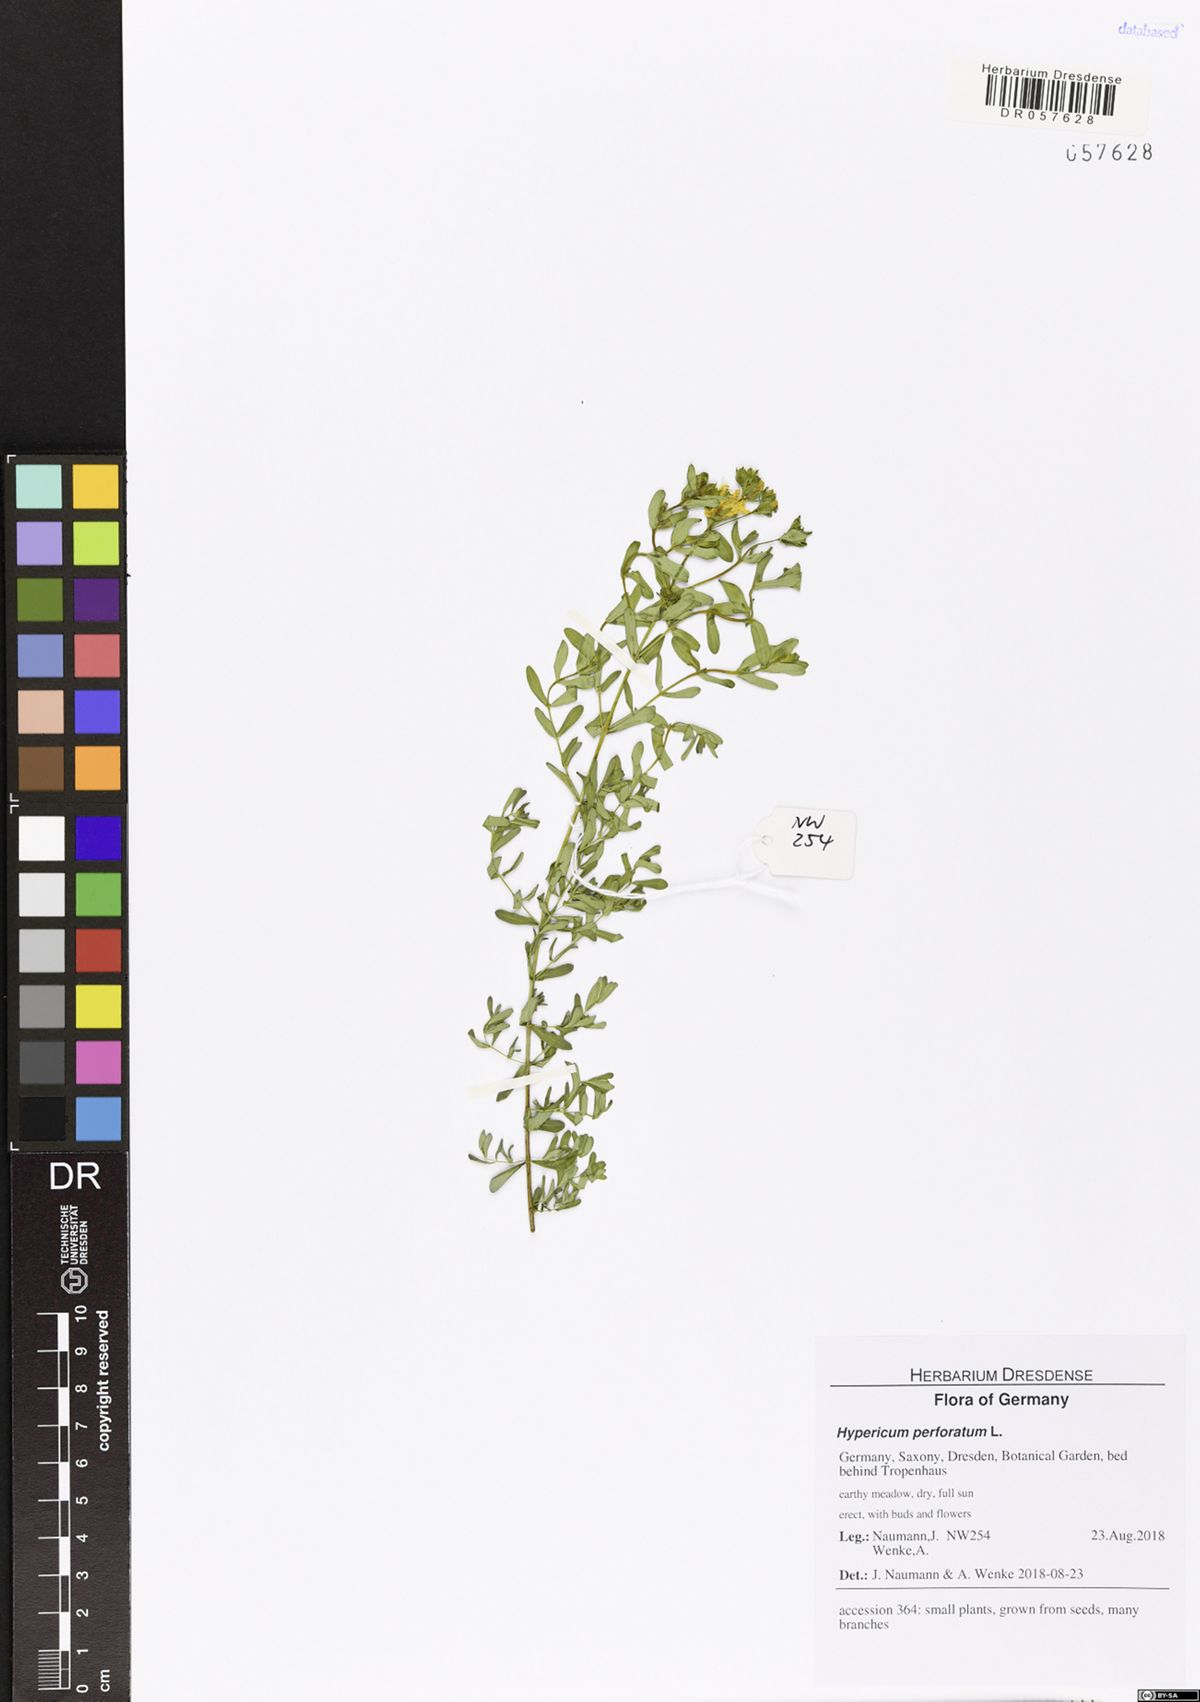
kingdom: Plantae
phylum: Tracheophyta
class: Magnoliopsida
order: Malpighiales
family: Hypericaceae
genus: Hypericum
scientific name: Hypericum perforatum
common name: Common st. johnswort
